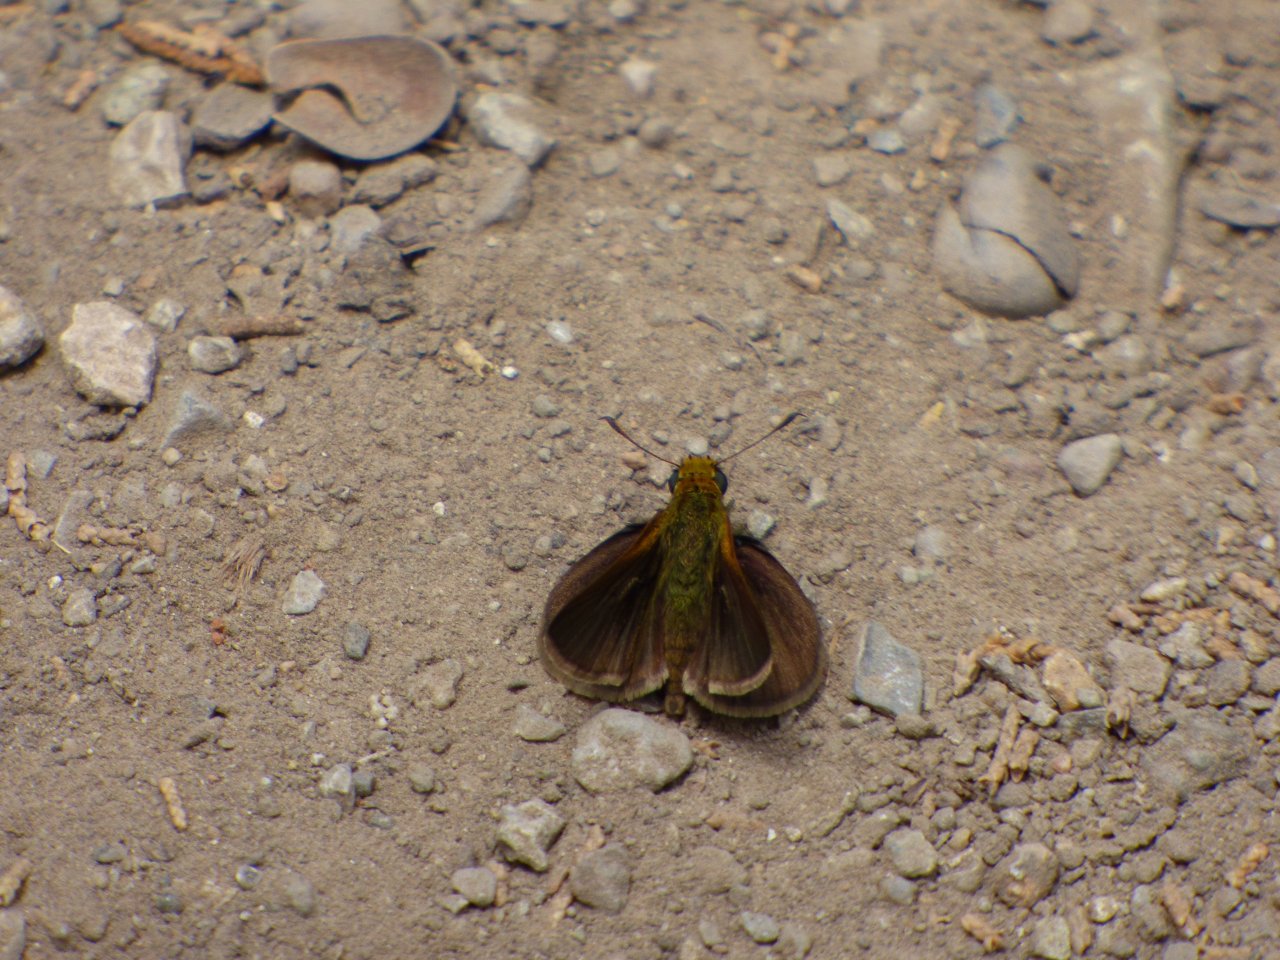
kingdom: Animalia
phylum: Arthropoda
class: Insecta
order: Lepidoptera
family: Hesperiidae
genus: Euphyes
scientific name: Euphyes vestris
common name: Dun Skipper
